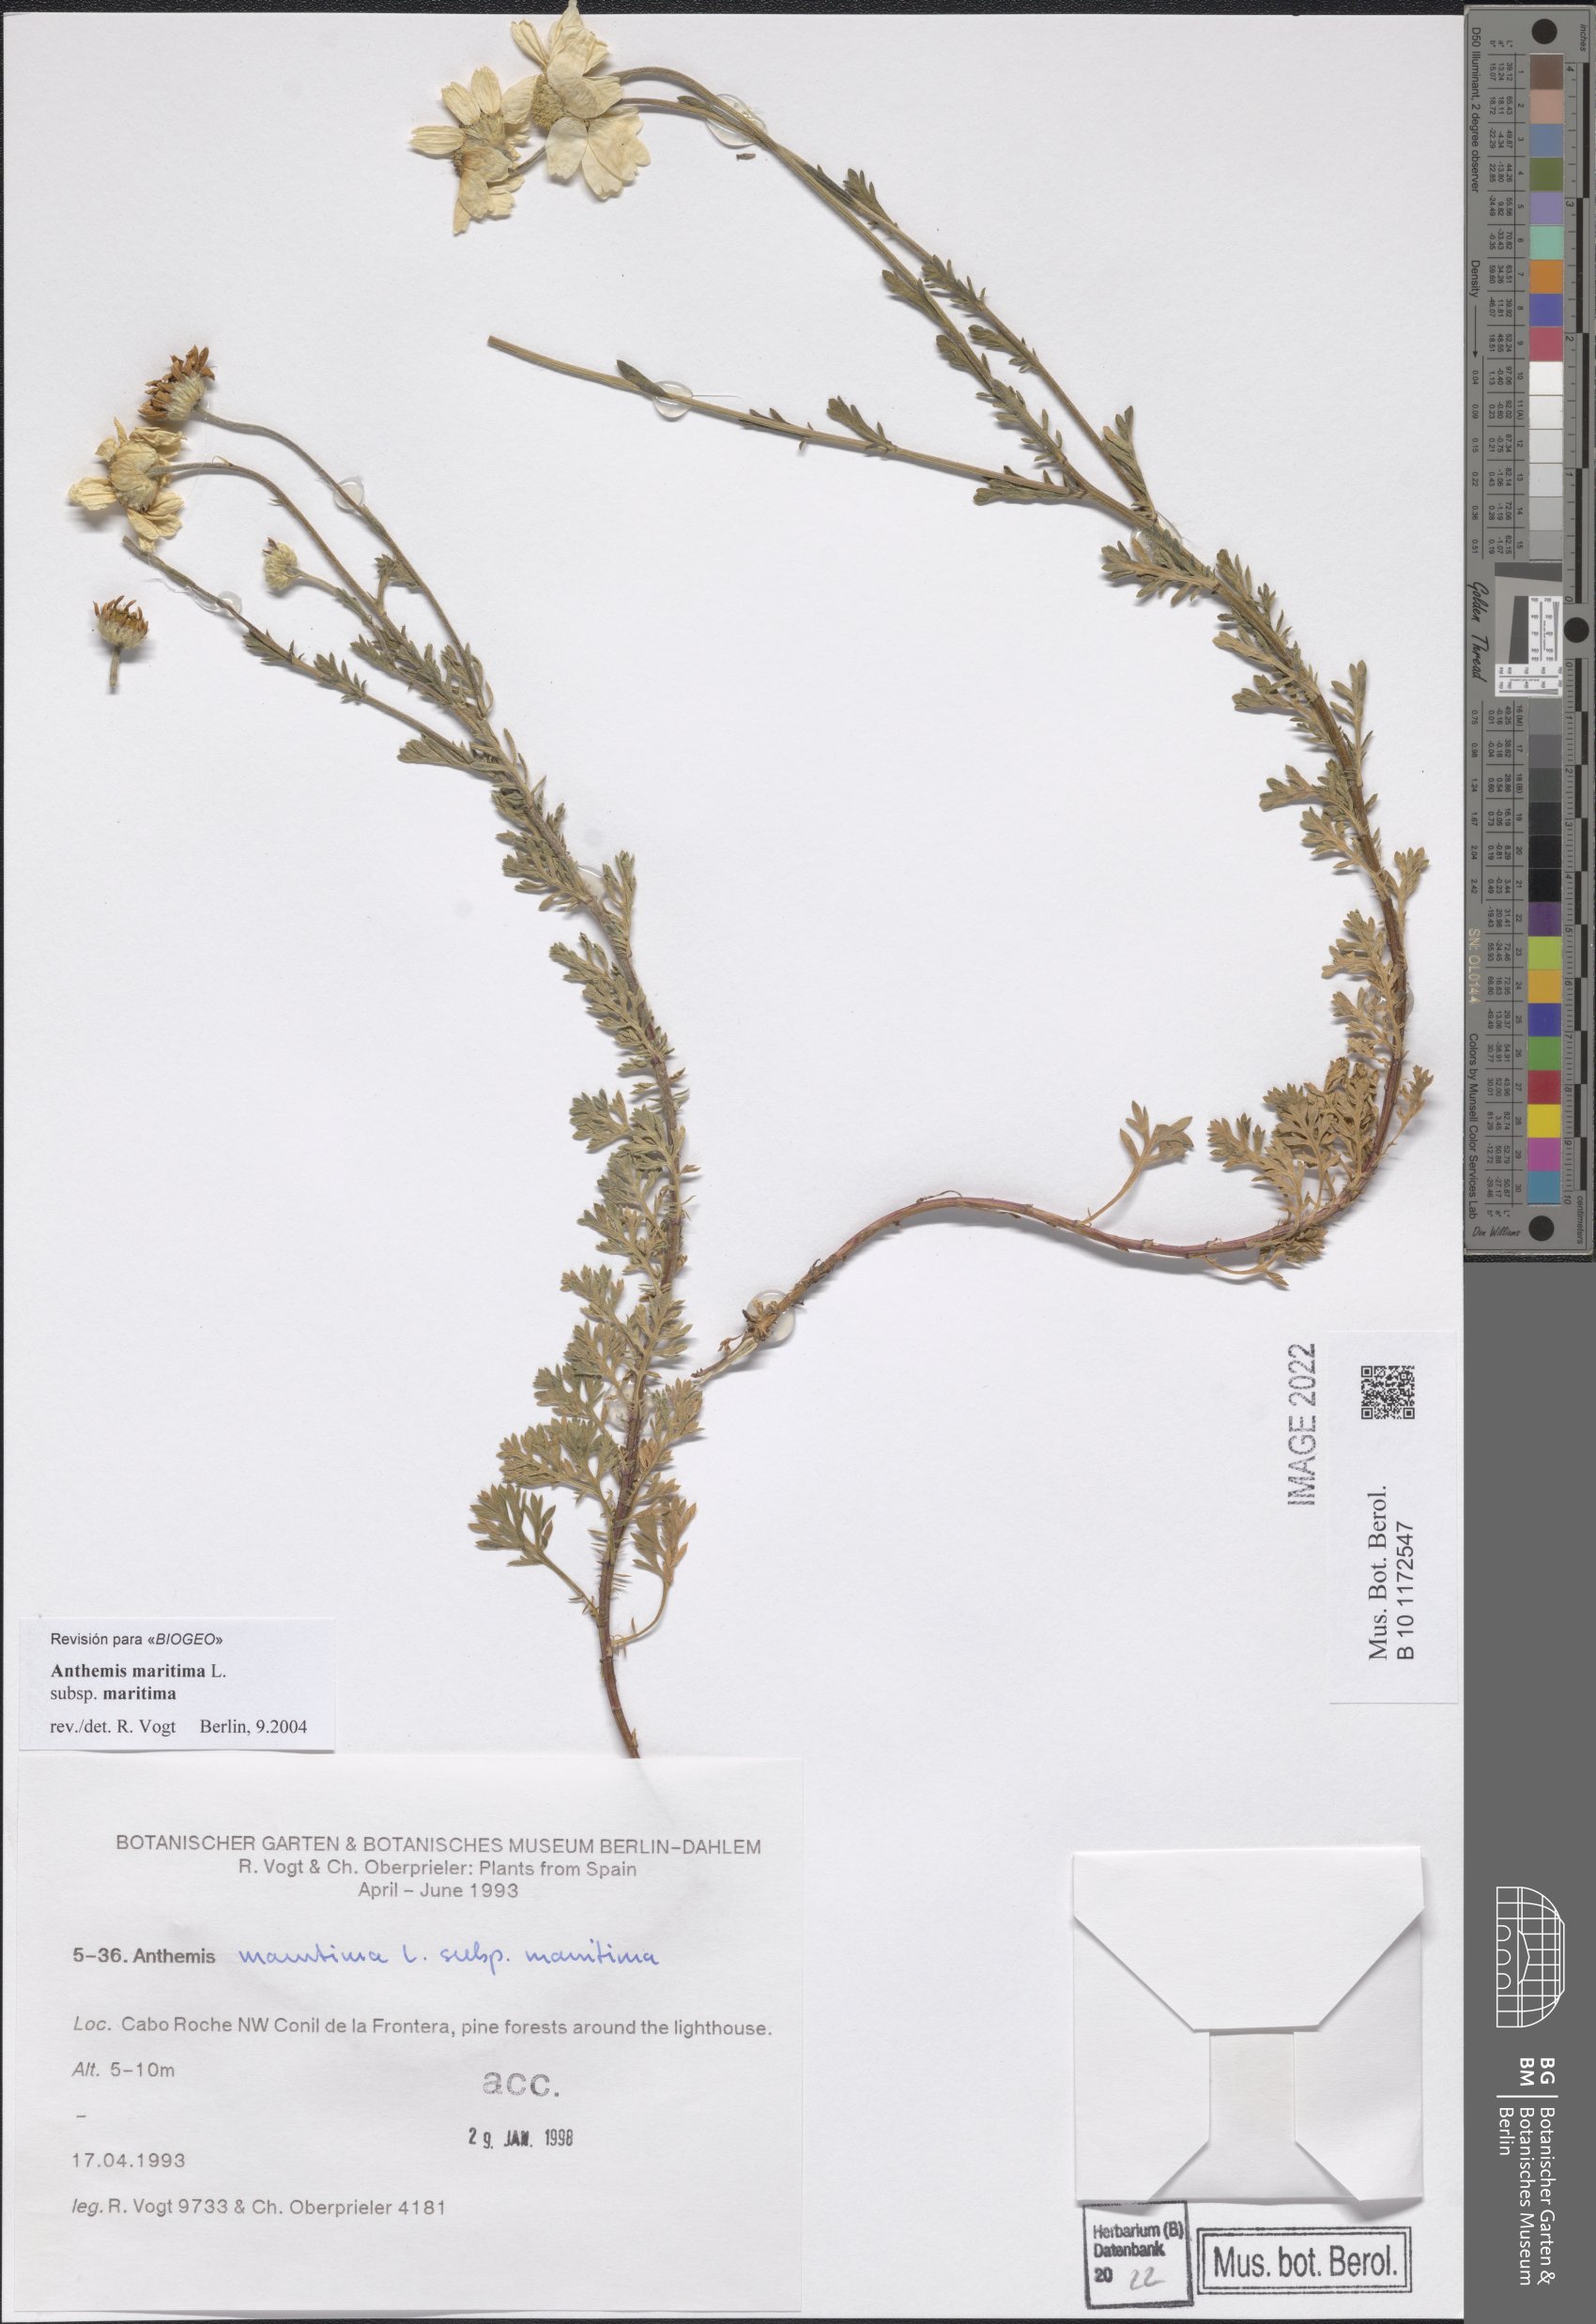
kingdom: Plantae
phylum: Tracheophyta
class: Magnoliopsida
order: Asterales
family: Asteraceae
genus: Anthemis
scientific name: Anthemis maritima
